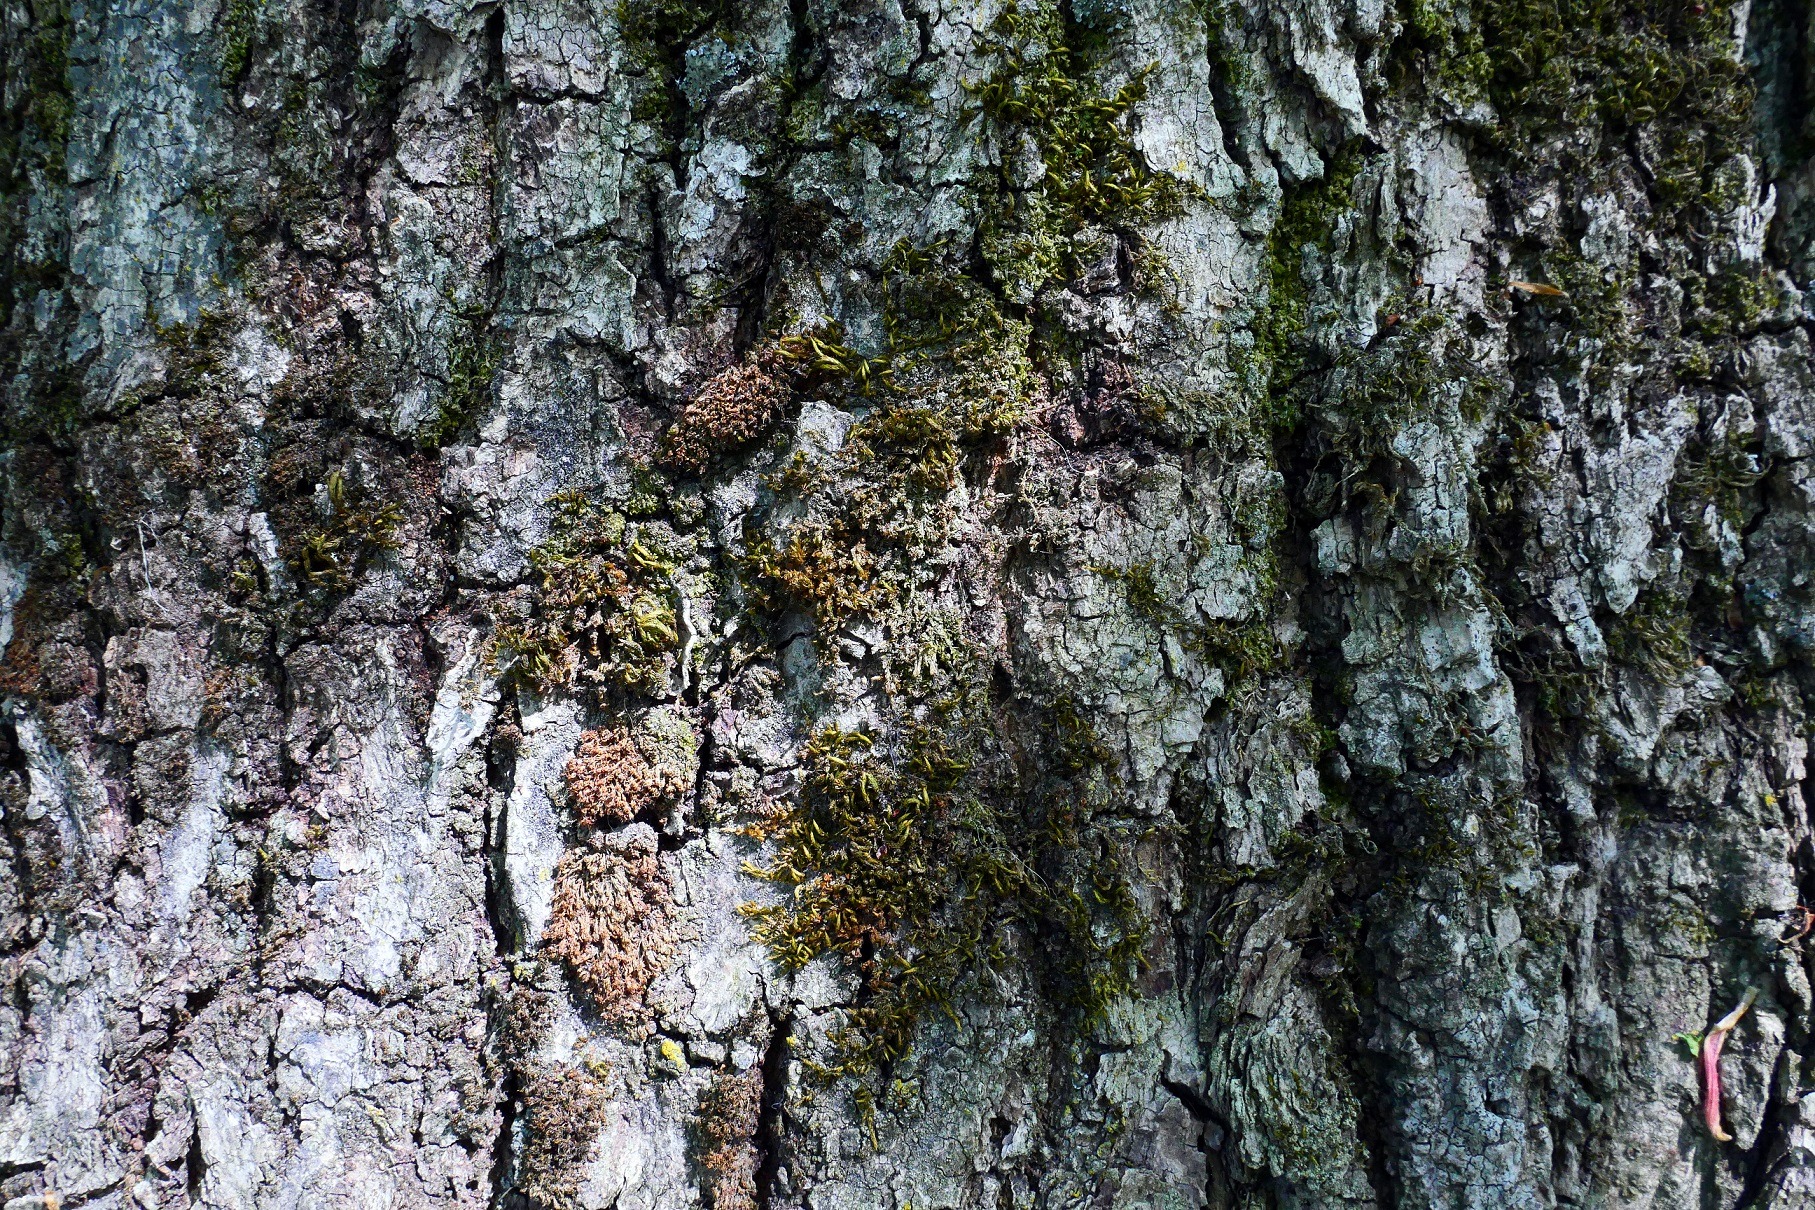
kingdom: Plantae
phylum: Bryophyta
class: Bryopsida
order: Hypnales
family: Leucodontaceae
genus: Leucodon
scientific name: Leucodon sciuroides
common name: Egernhale-buemos
